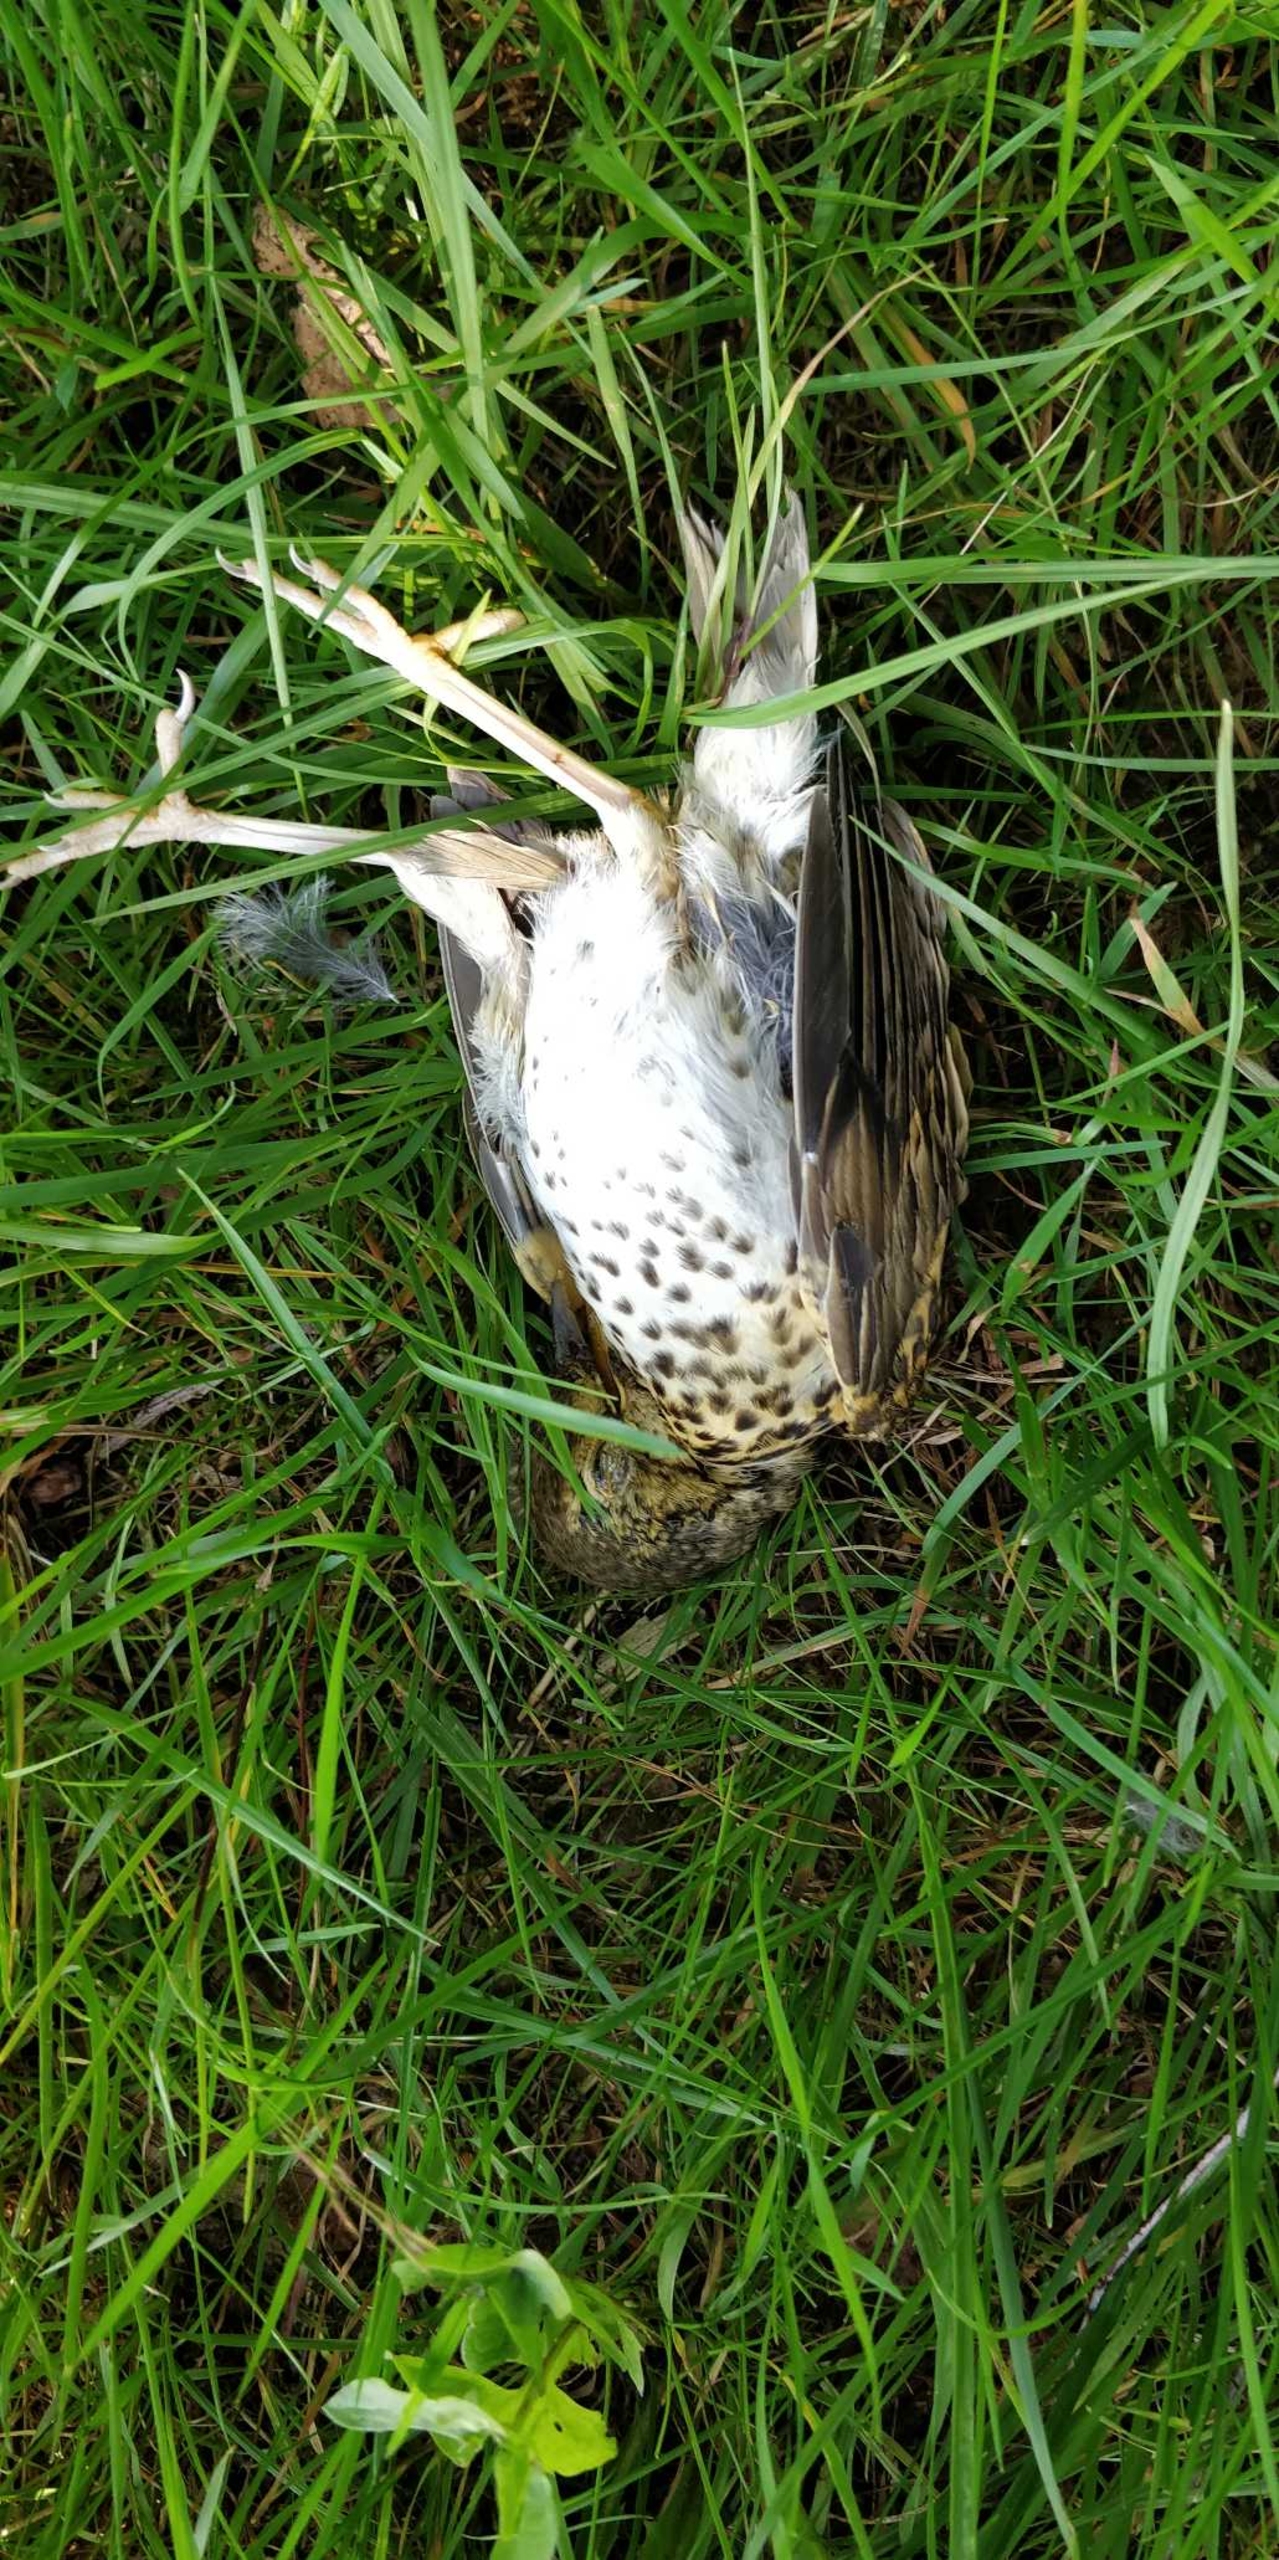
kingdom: Animalia
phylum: Chordata
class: Aves
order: Passeriformes
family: Turdidae
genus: Turdus
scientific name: Turdus philomelos
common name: Sangdrossel
